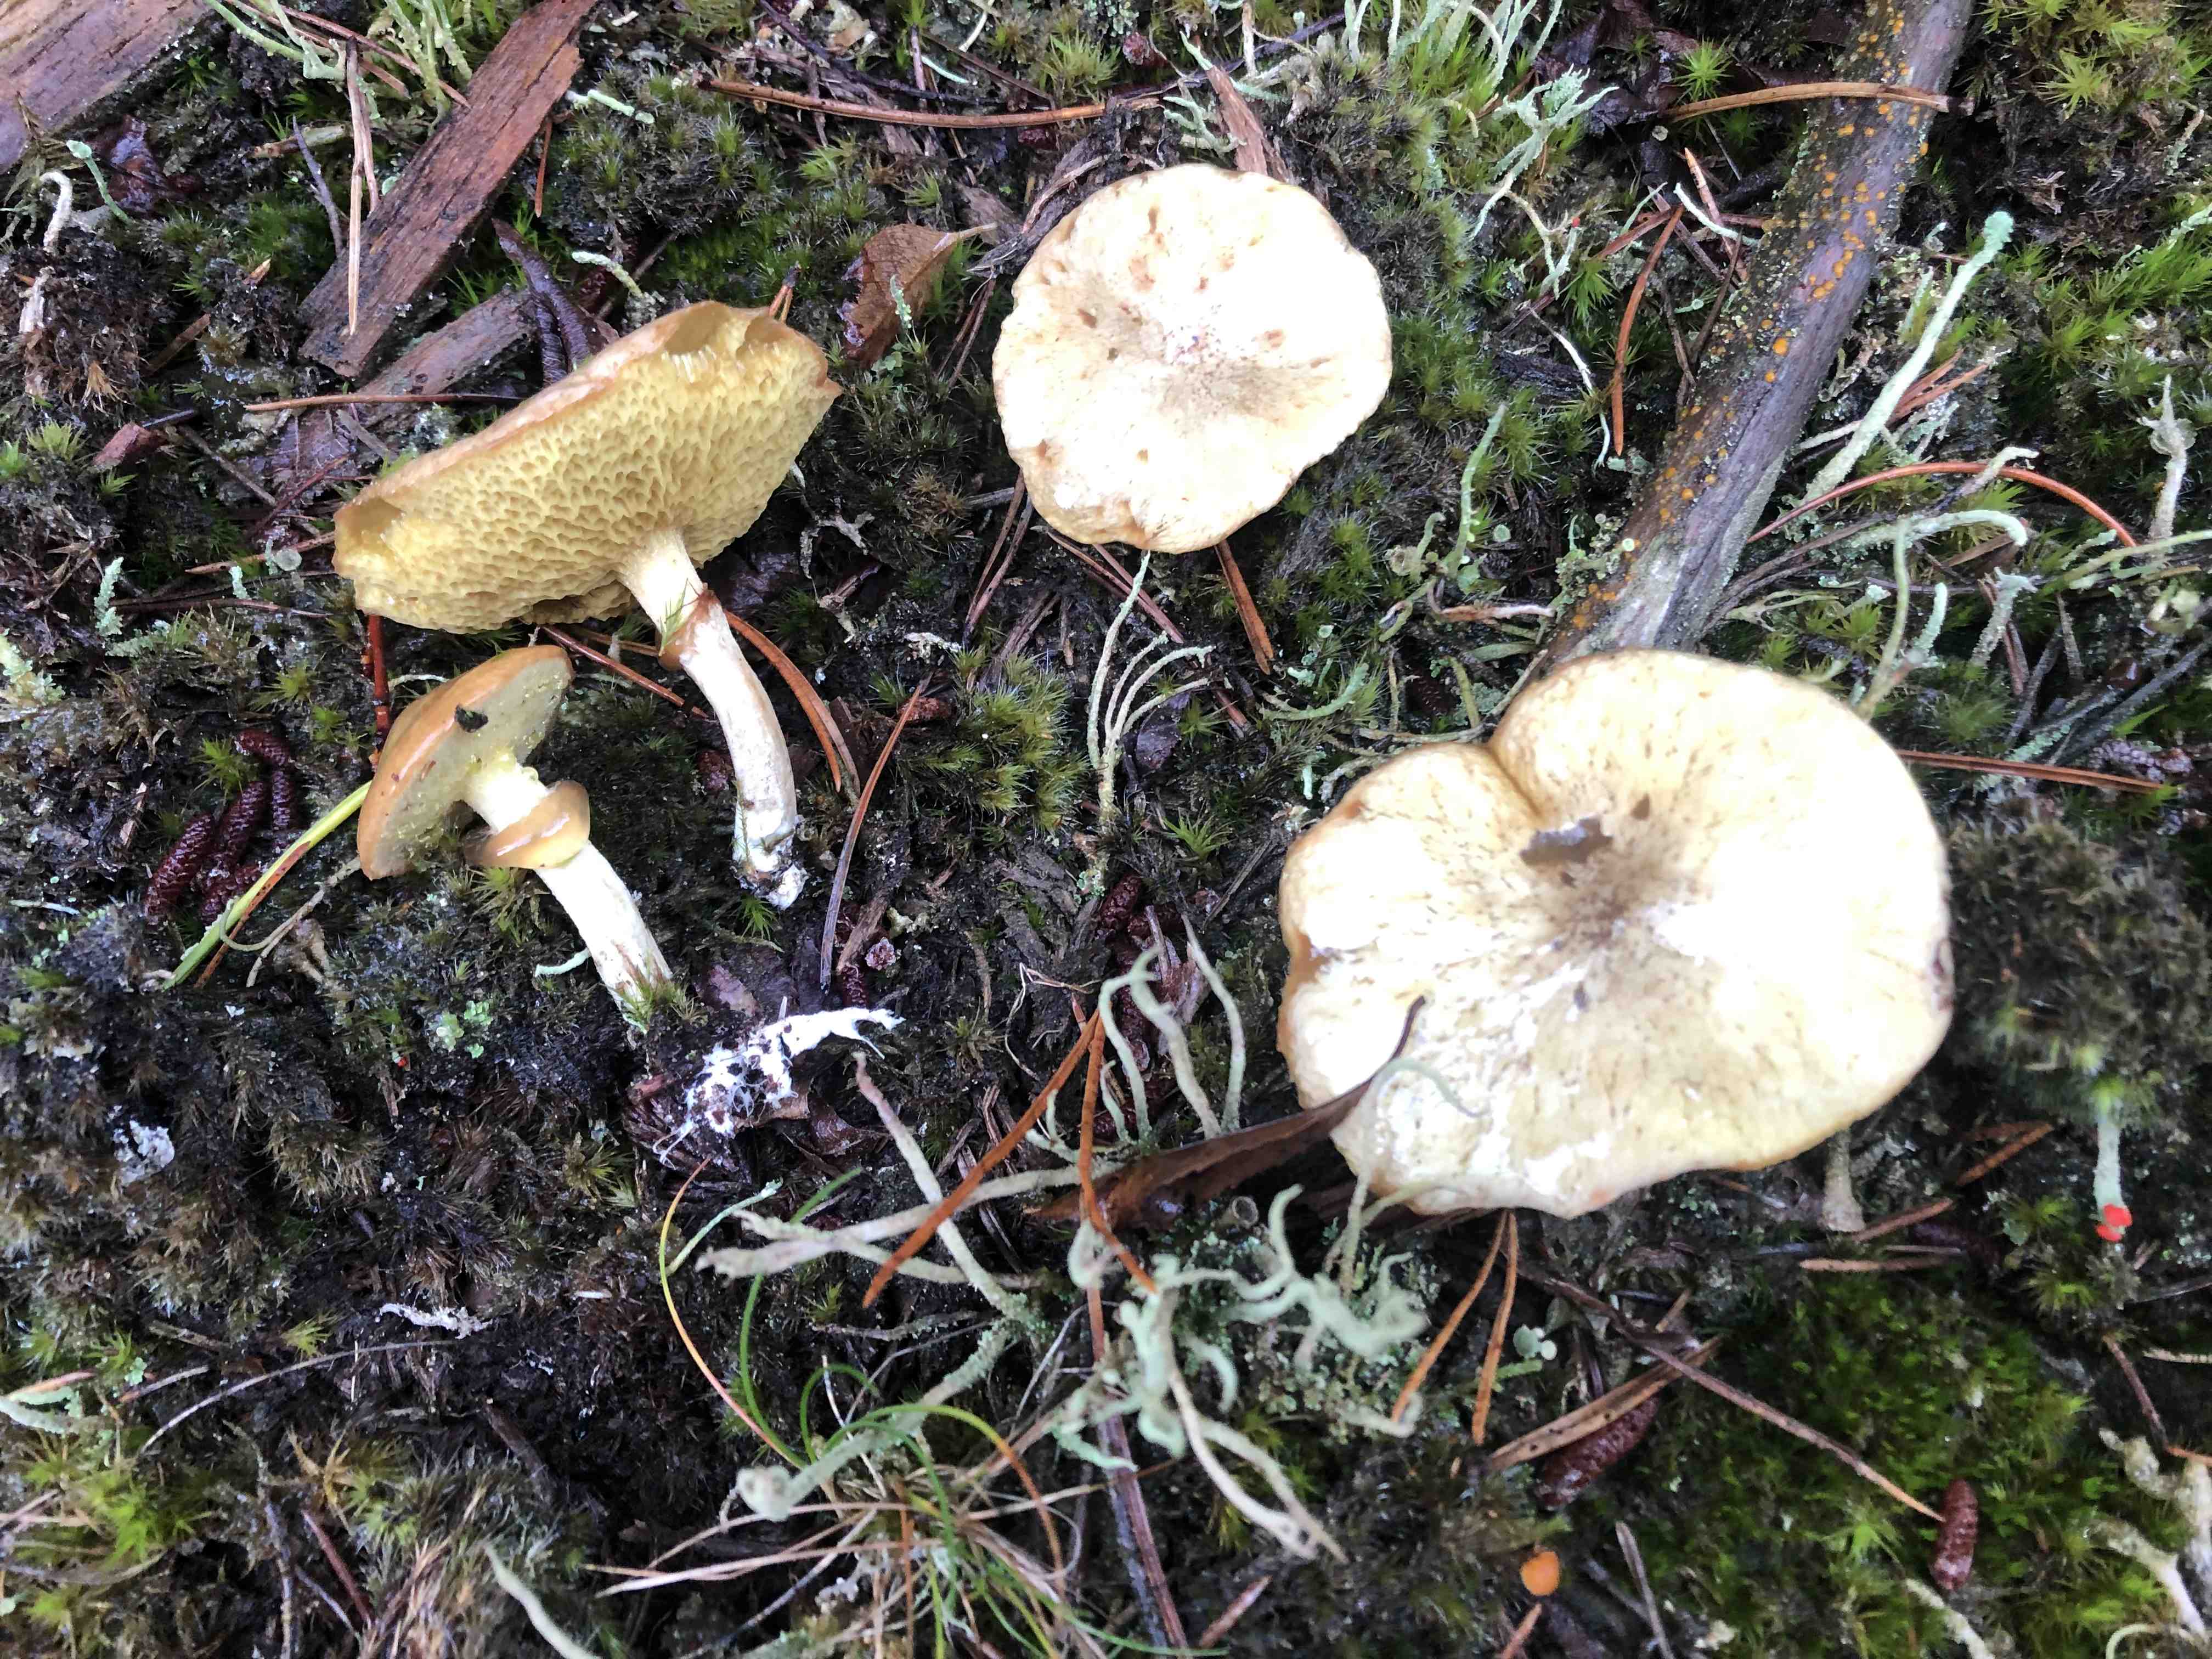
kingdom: Fungi
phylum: Basidiomycota
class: Agaricomycetes
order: Boletales
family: Suillaceae
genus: Suillus
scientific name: Suillus flavidus
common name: mose-slimrørhat
